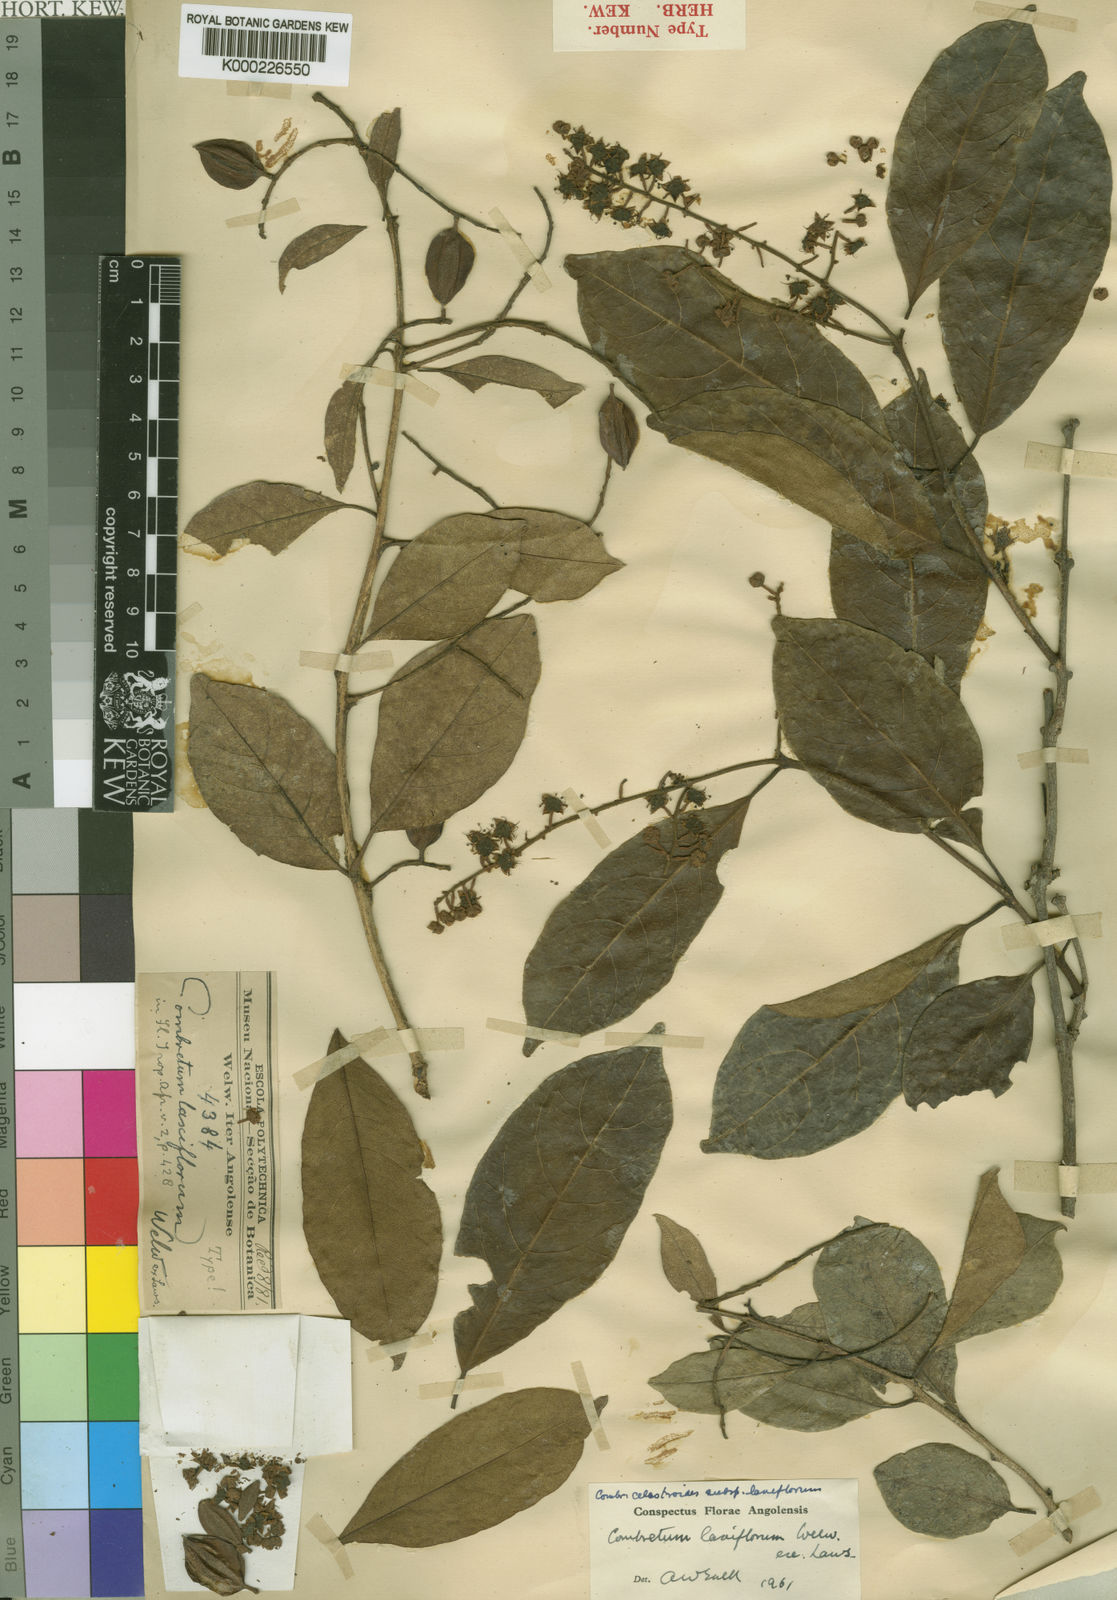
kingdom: Plantae
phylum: Tracheophyta
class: Magnoliopsida
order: Myrtales
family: Combretaceae
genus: Combretum
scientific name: Combretum celastroides
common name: Jesse-bush combretum
